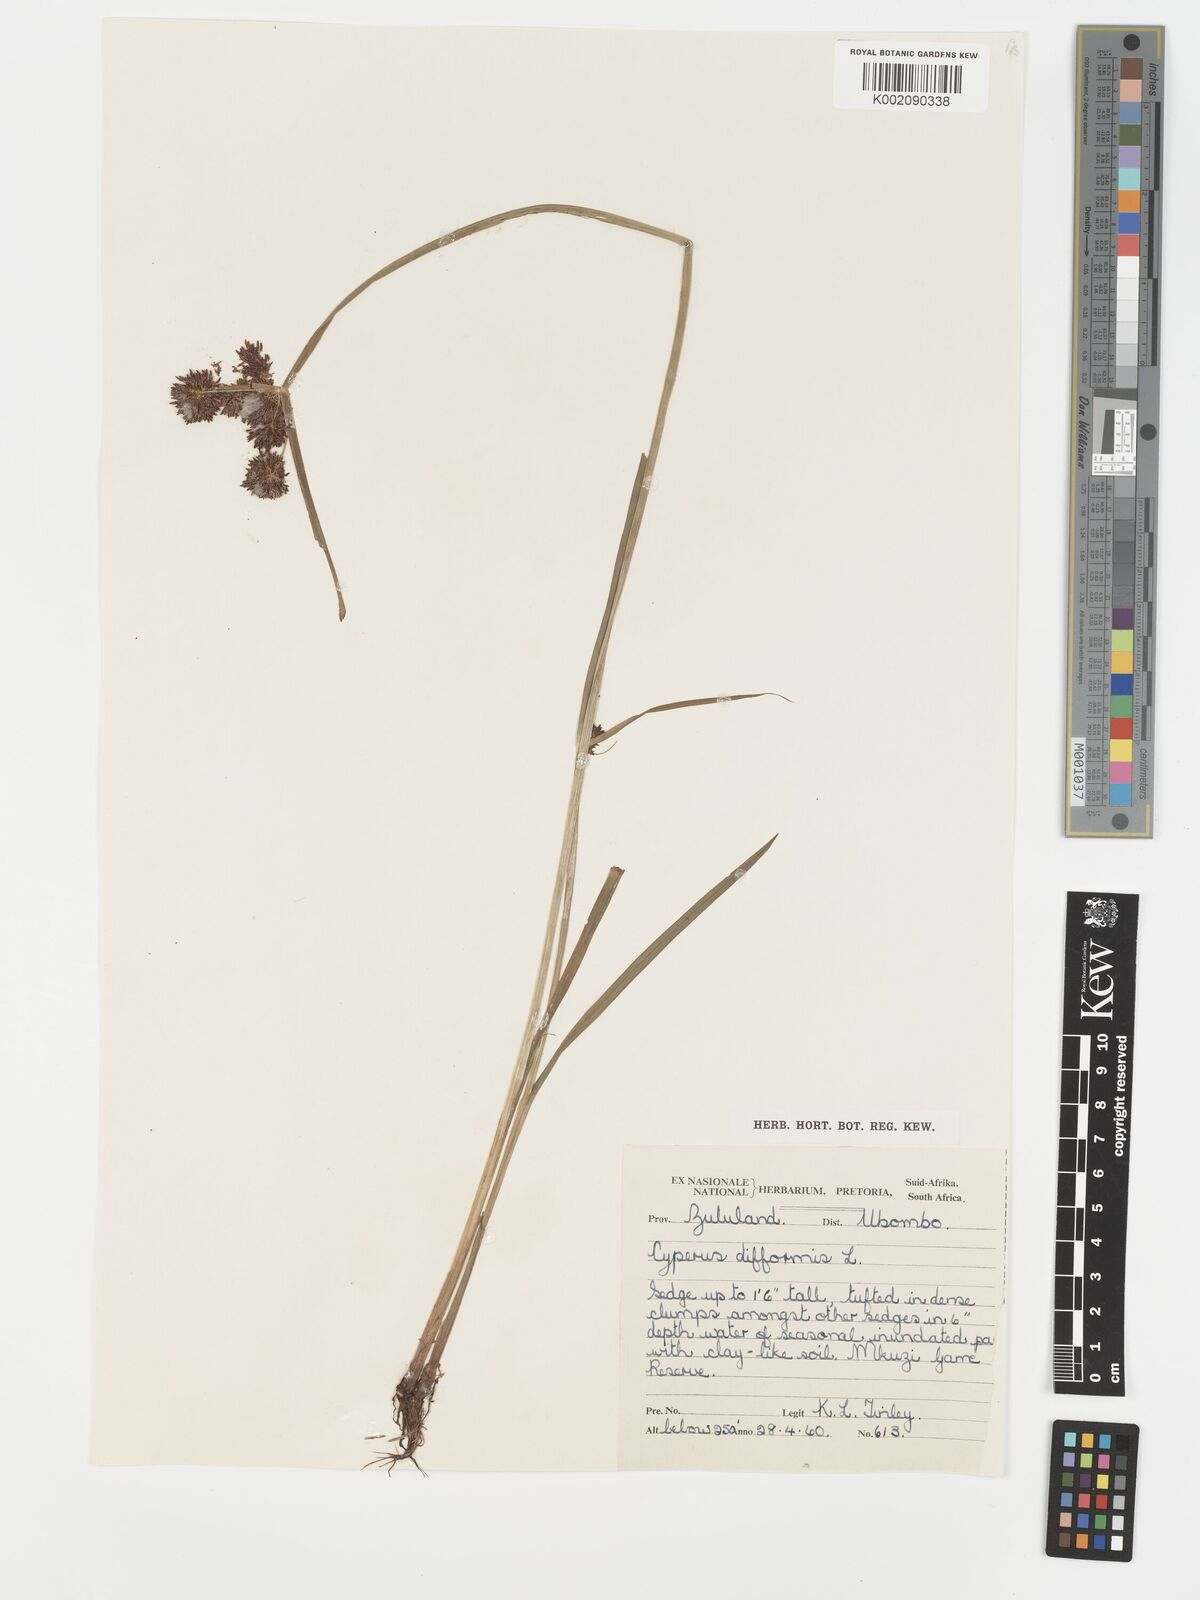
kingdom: Plantae
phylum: Tracheophyta
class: Liliopsida
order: Poales
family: Cyperaceae
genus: Cyperus
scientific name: Cyperus difformis
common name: Variable flatsedge
